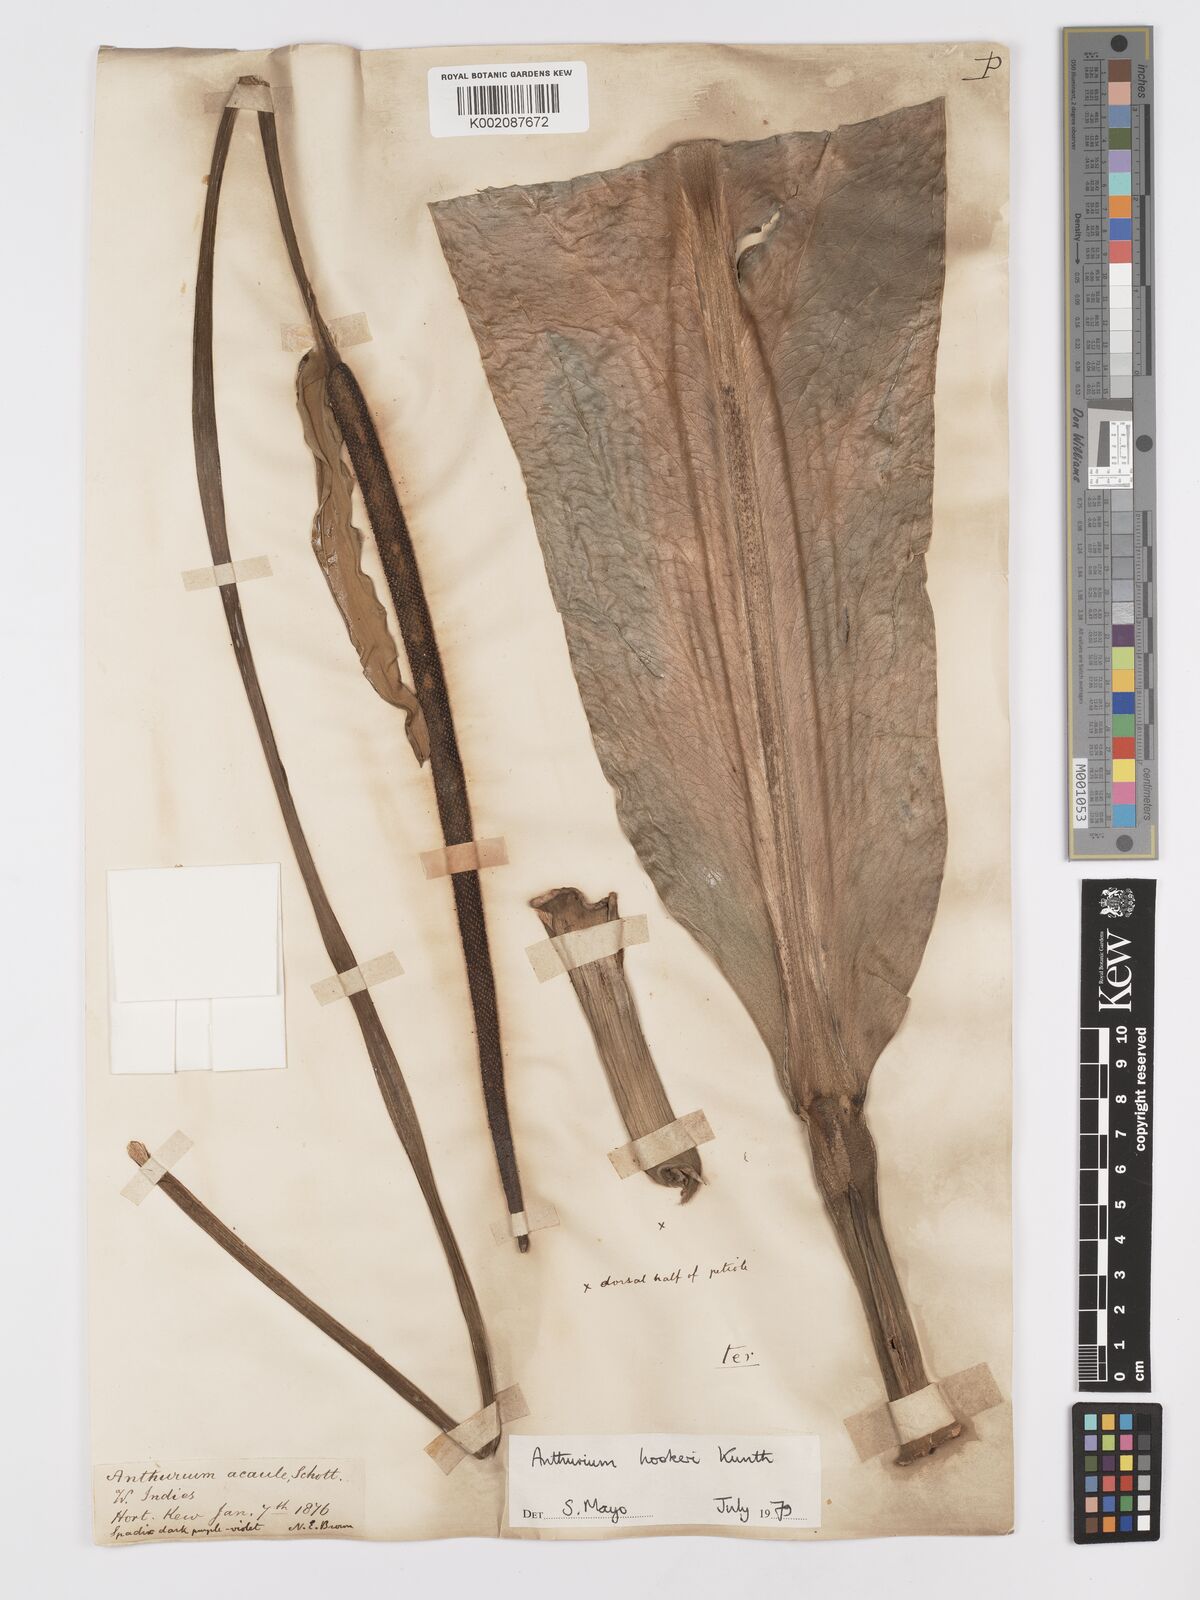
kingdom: Plantae
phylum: Tracheophyta
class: Liliopsida
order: Alismatales
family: Araceae
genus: Anthurium
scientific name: Anthurium hookeri
